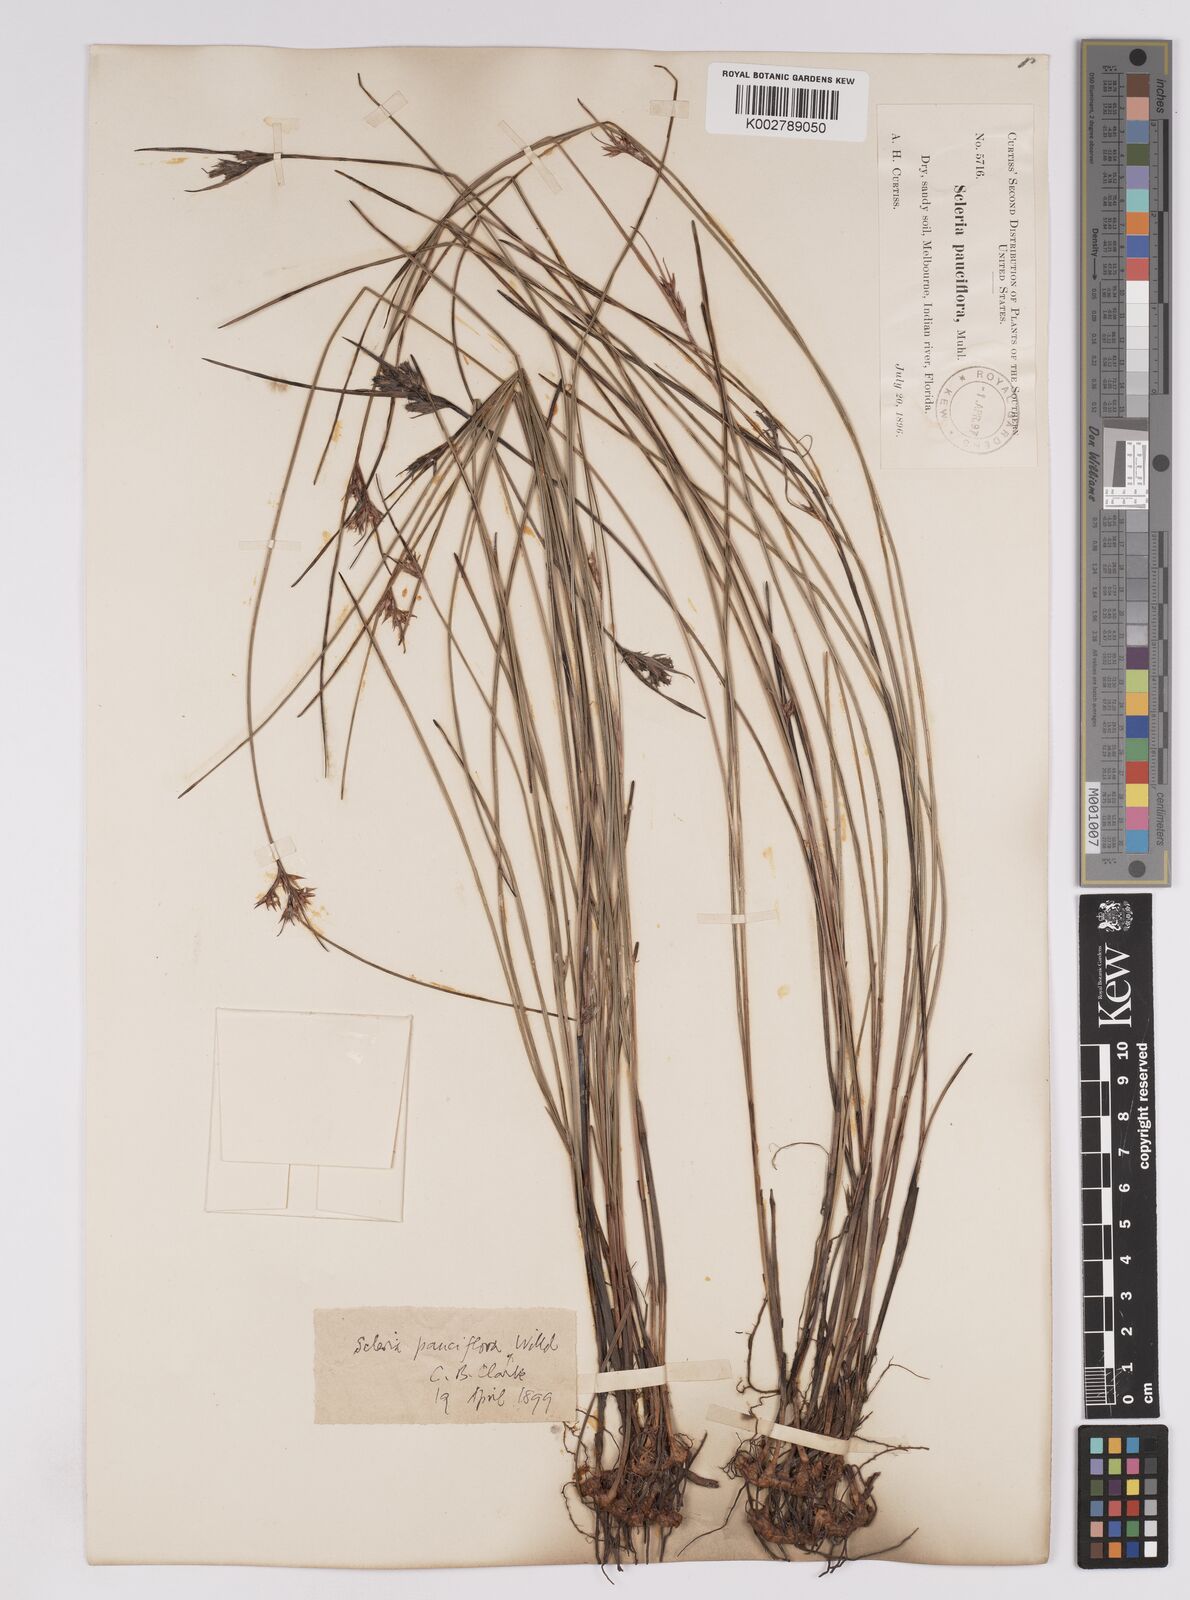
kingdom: Plantae
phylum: Tracheophyta
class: Liliopsida
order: Poales
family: Cyperaceae
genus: Scleria
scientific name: Scleria pauciflora
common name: Few-flowered nutrush
